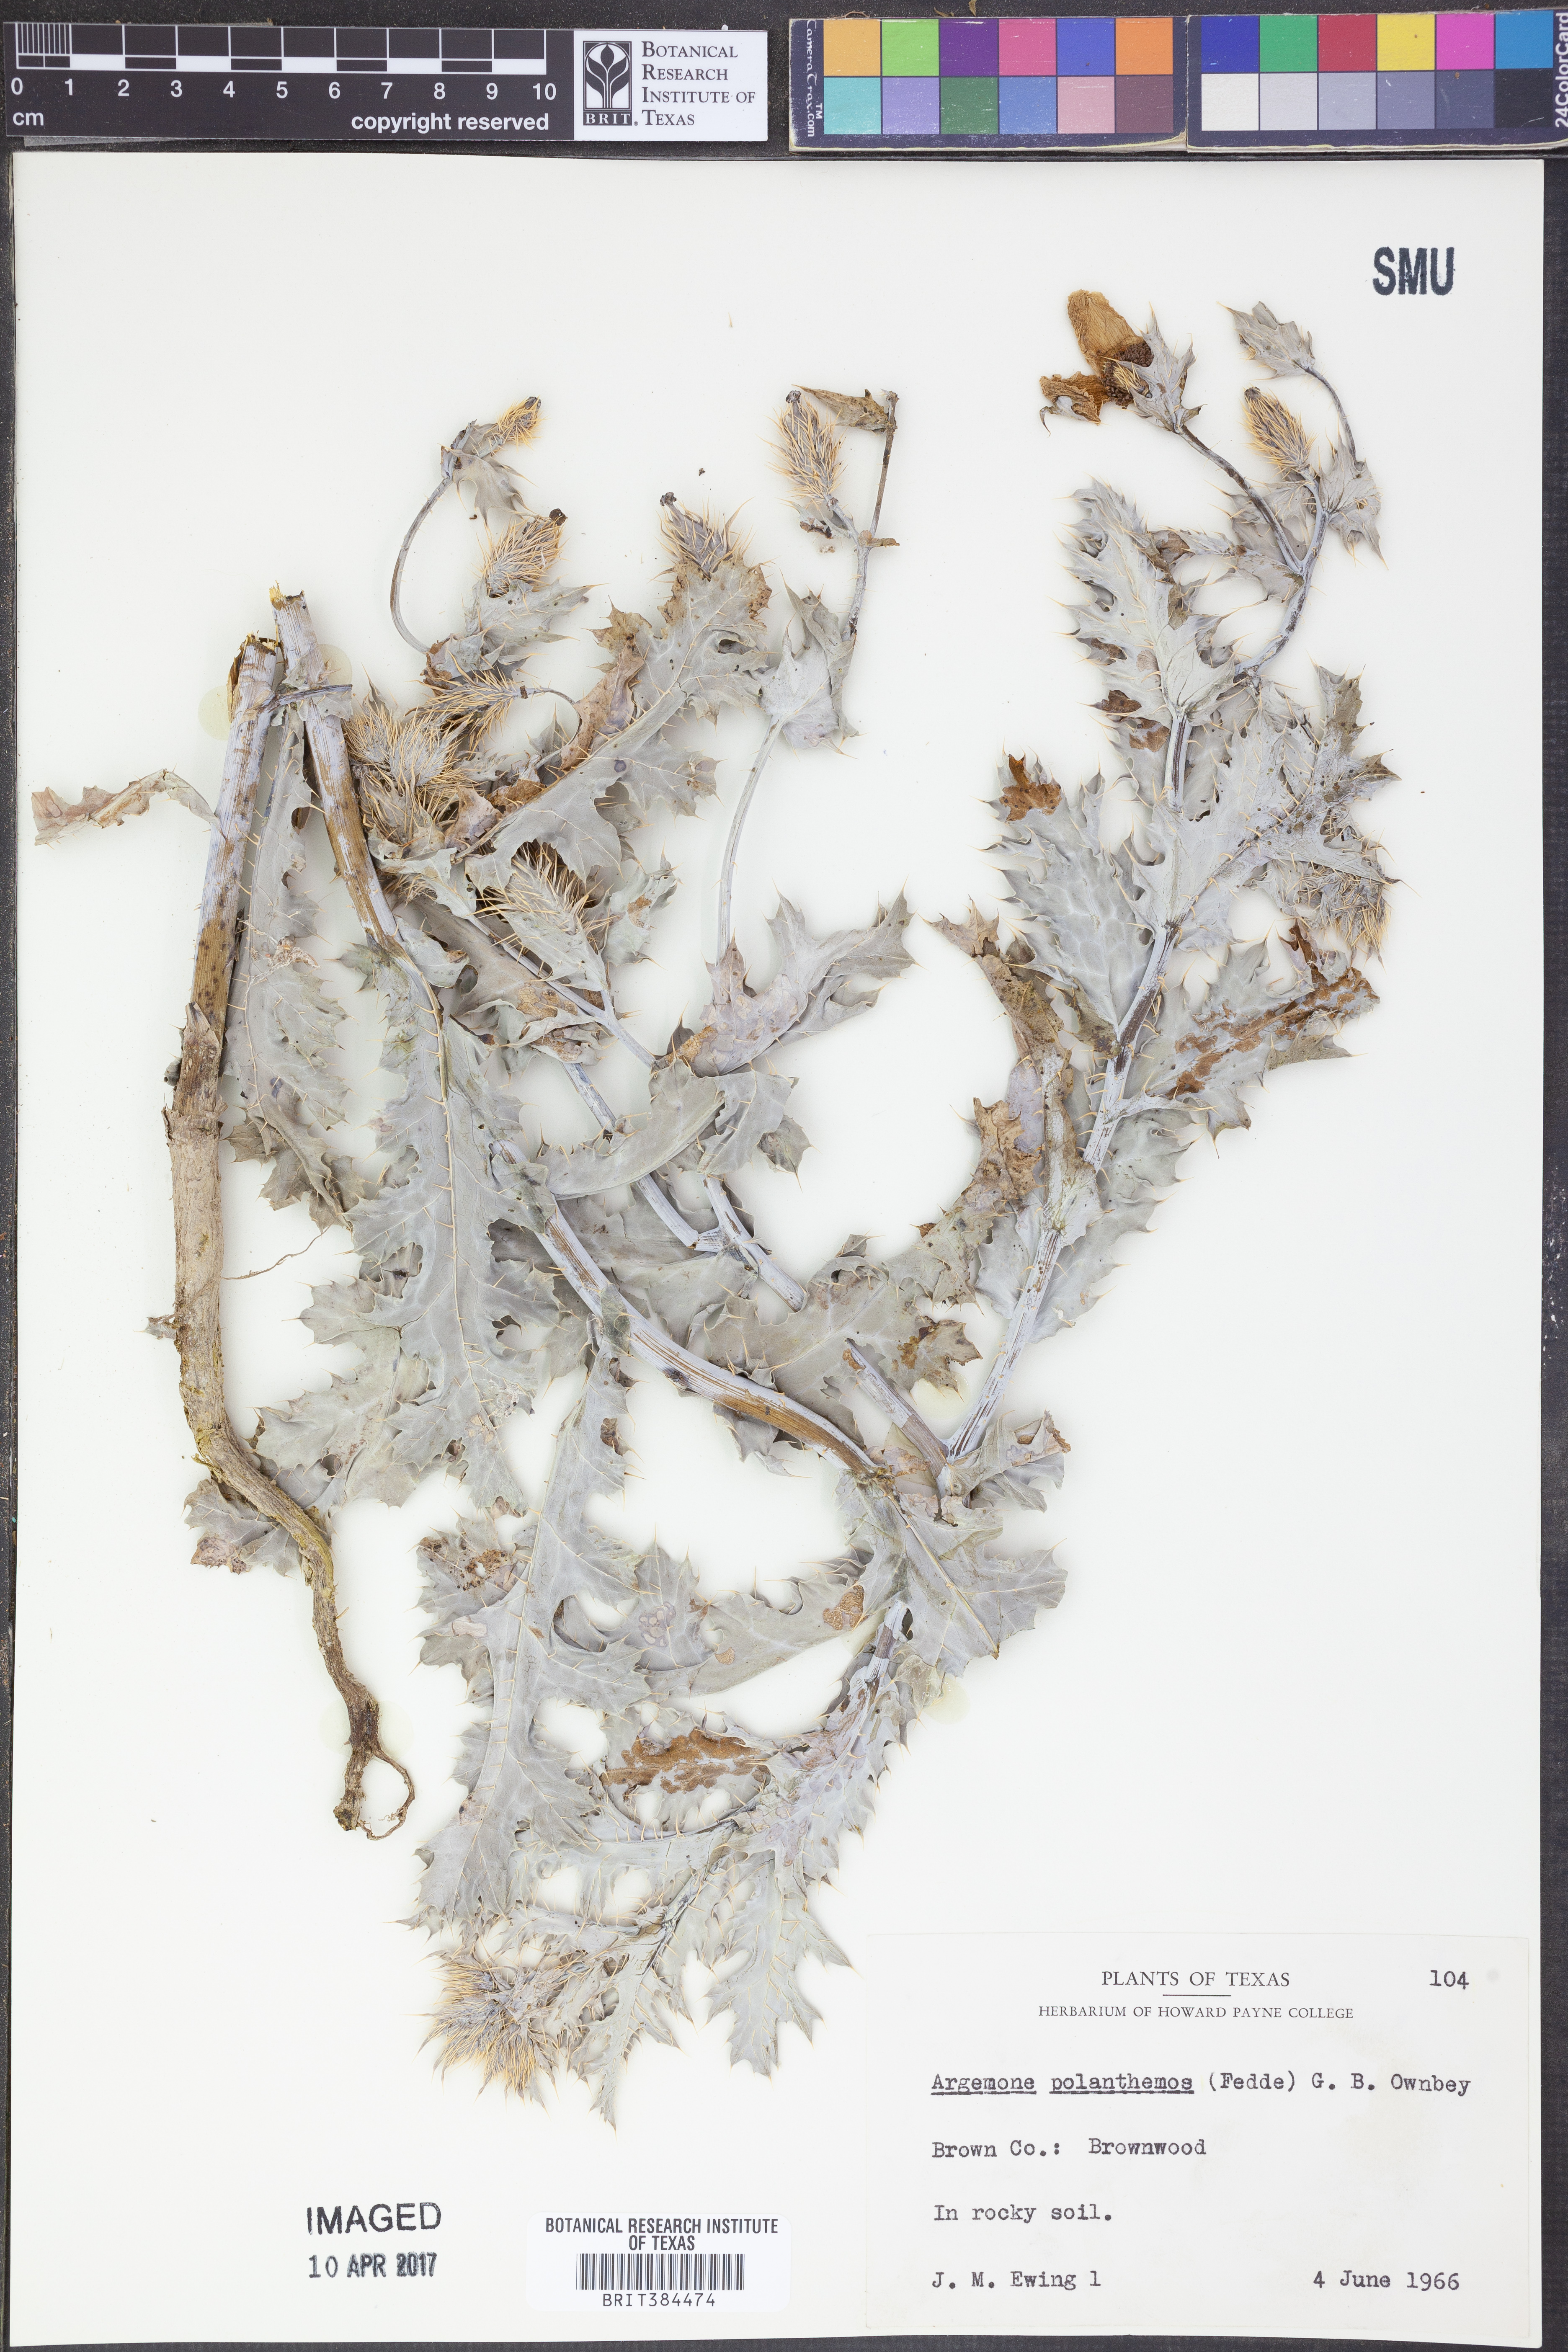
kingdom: Plantae
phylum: Tracheophyta
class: Magnoliopsida
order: Ranunculales
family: Papaveraceae
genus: Argemone
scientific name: Argemone polyanthemos
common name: Plains prickly-poppy
